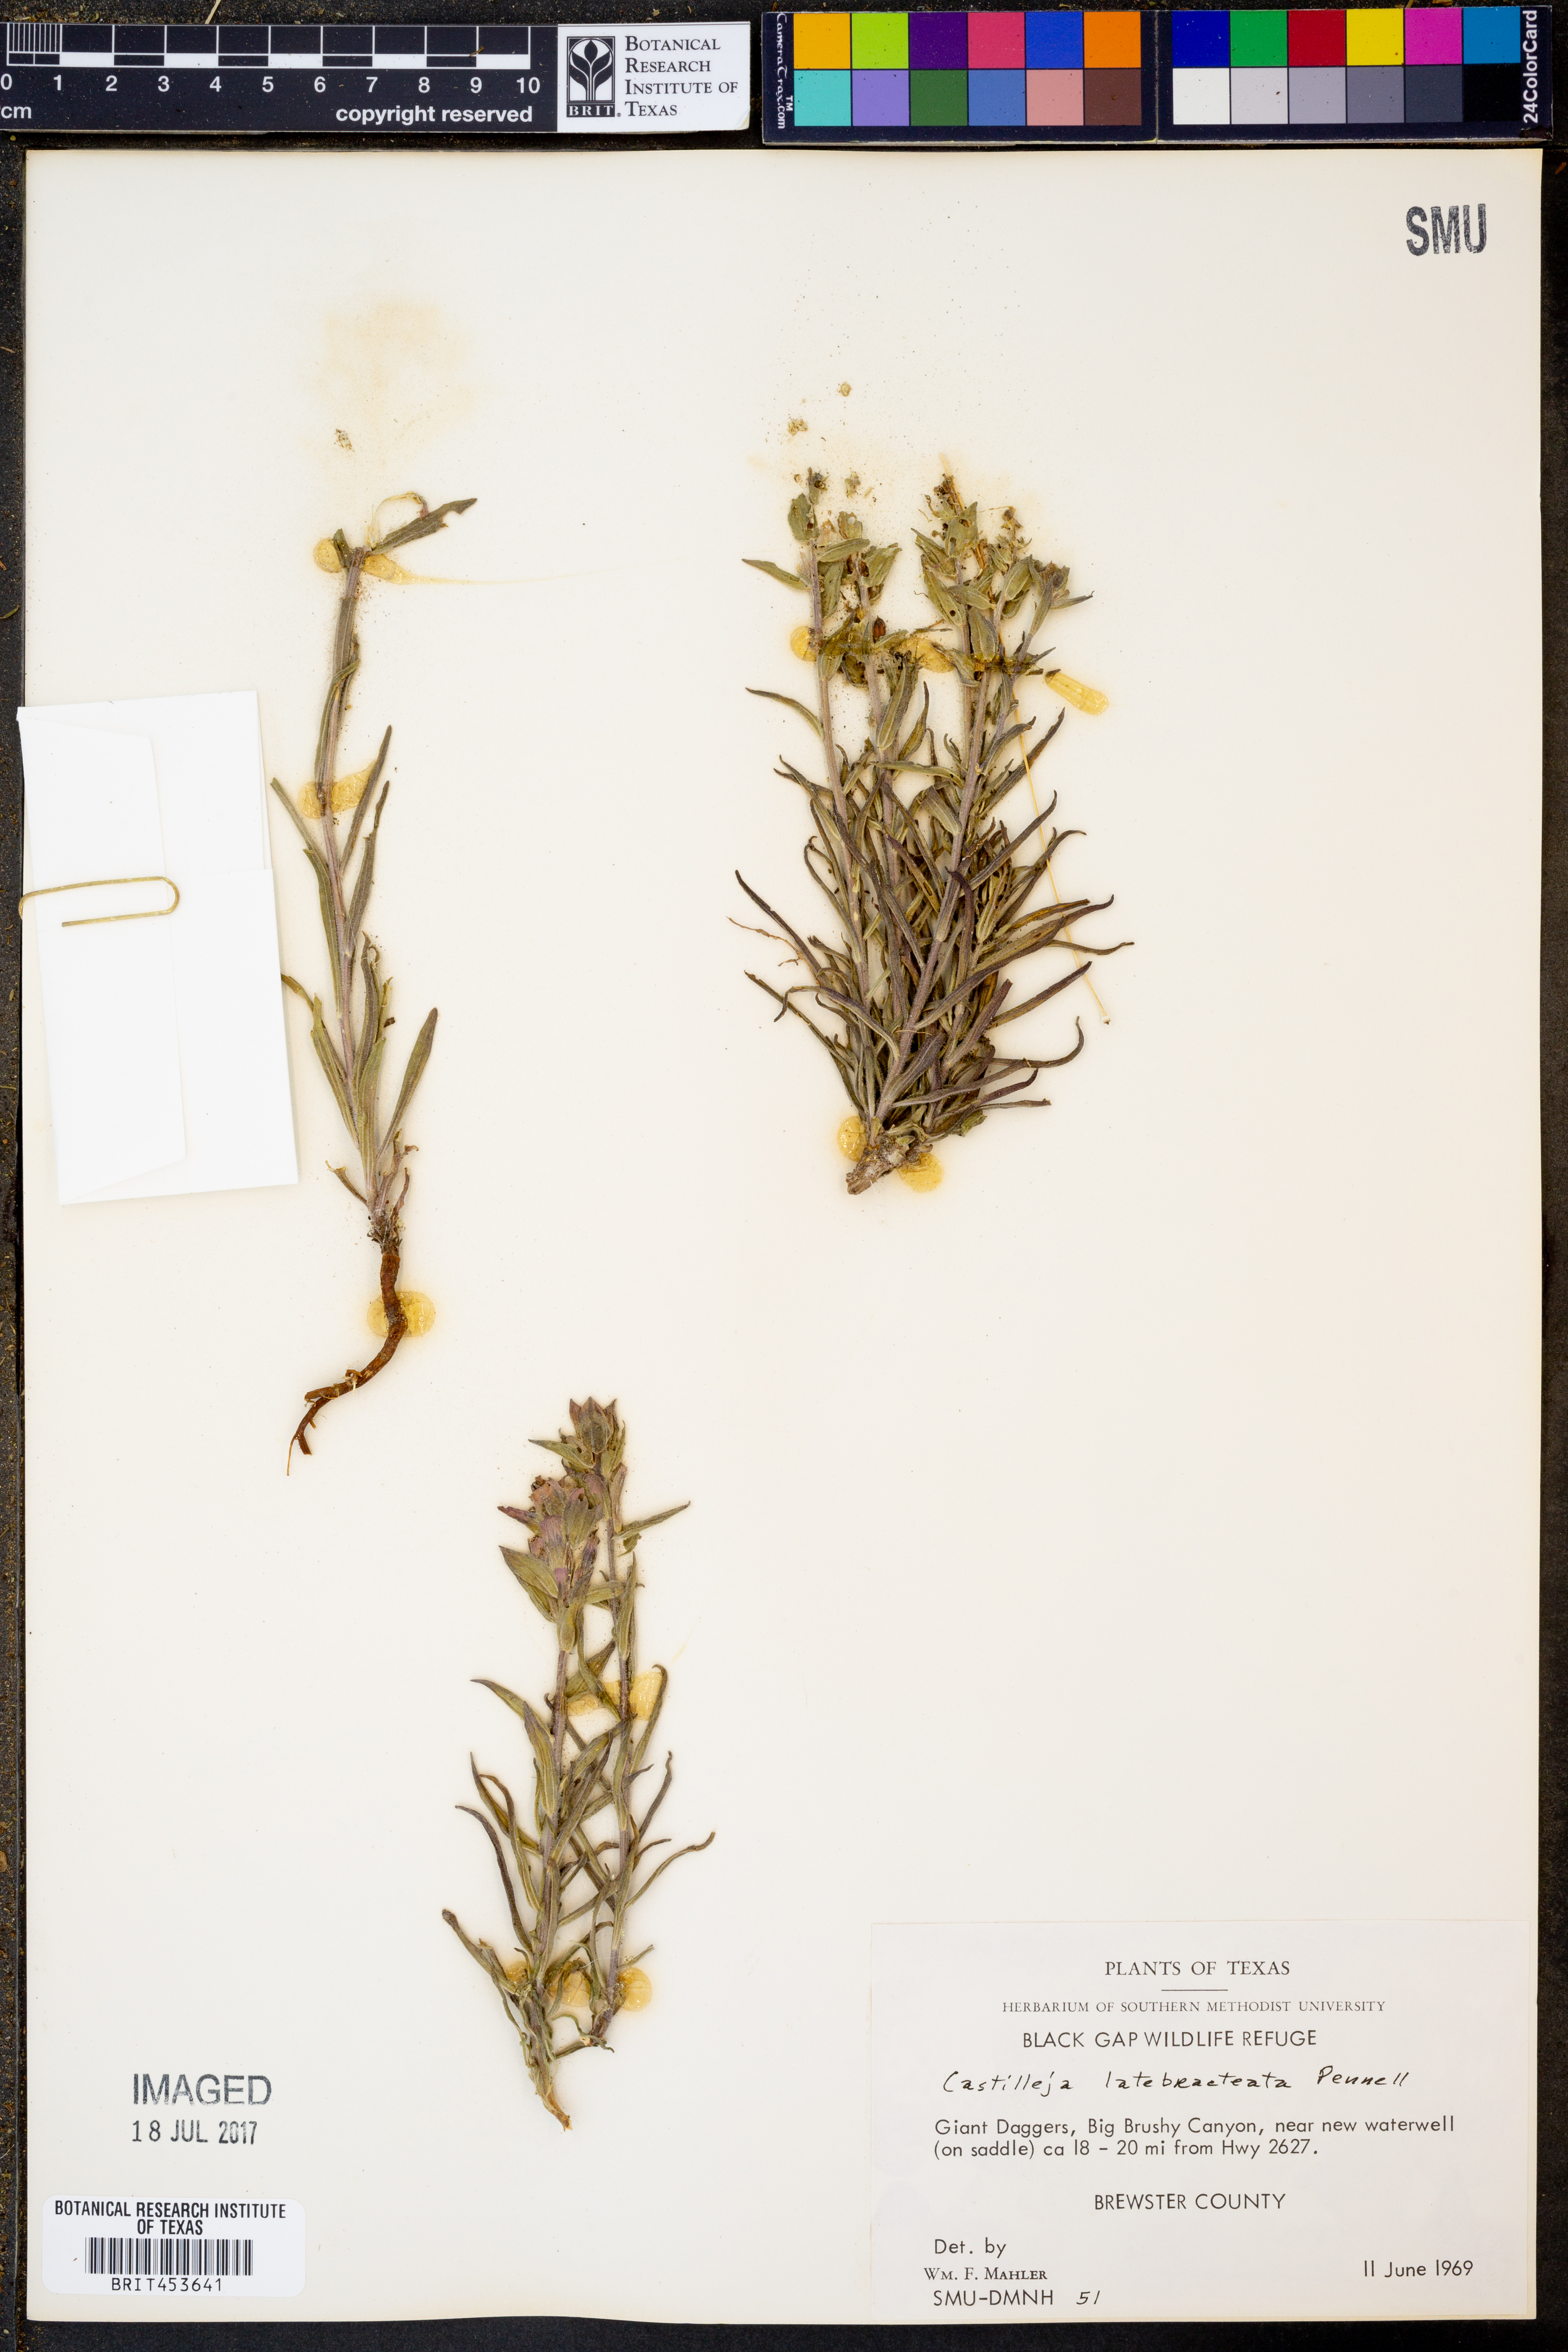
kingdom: Plantae
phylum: Tracheophyta
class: Magnoliopsida
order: Lamiales
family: Orobanchaceae
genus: Castilleja
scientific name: Castilleja rigida
